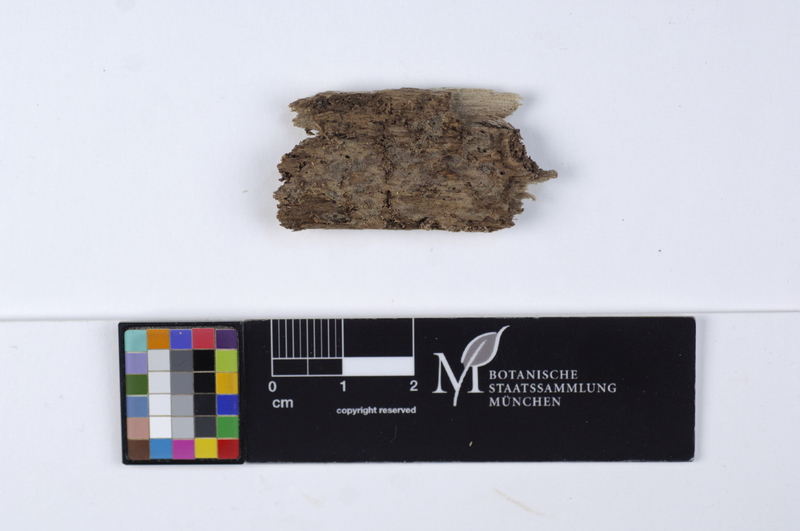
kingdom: Fungi
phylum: Basidiomycota
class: Agaricomycetes
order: Cantharellales
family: Botryobasidiaceae
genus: Botryobasidium
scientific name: Botryobasidium ellipsosporum
